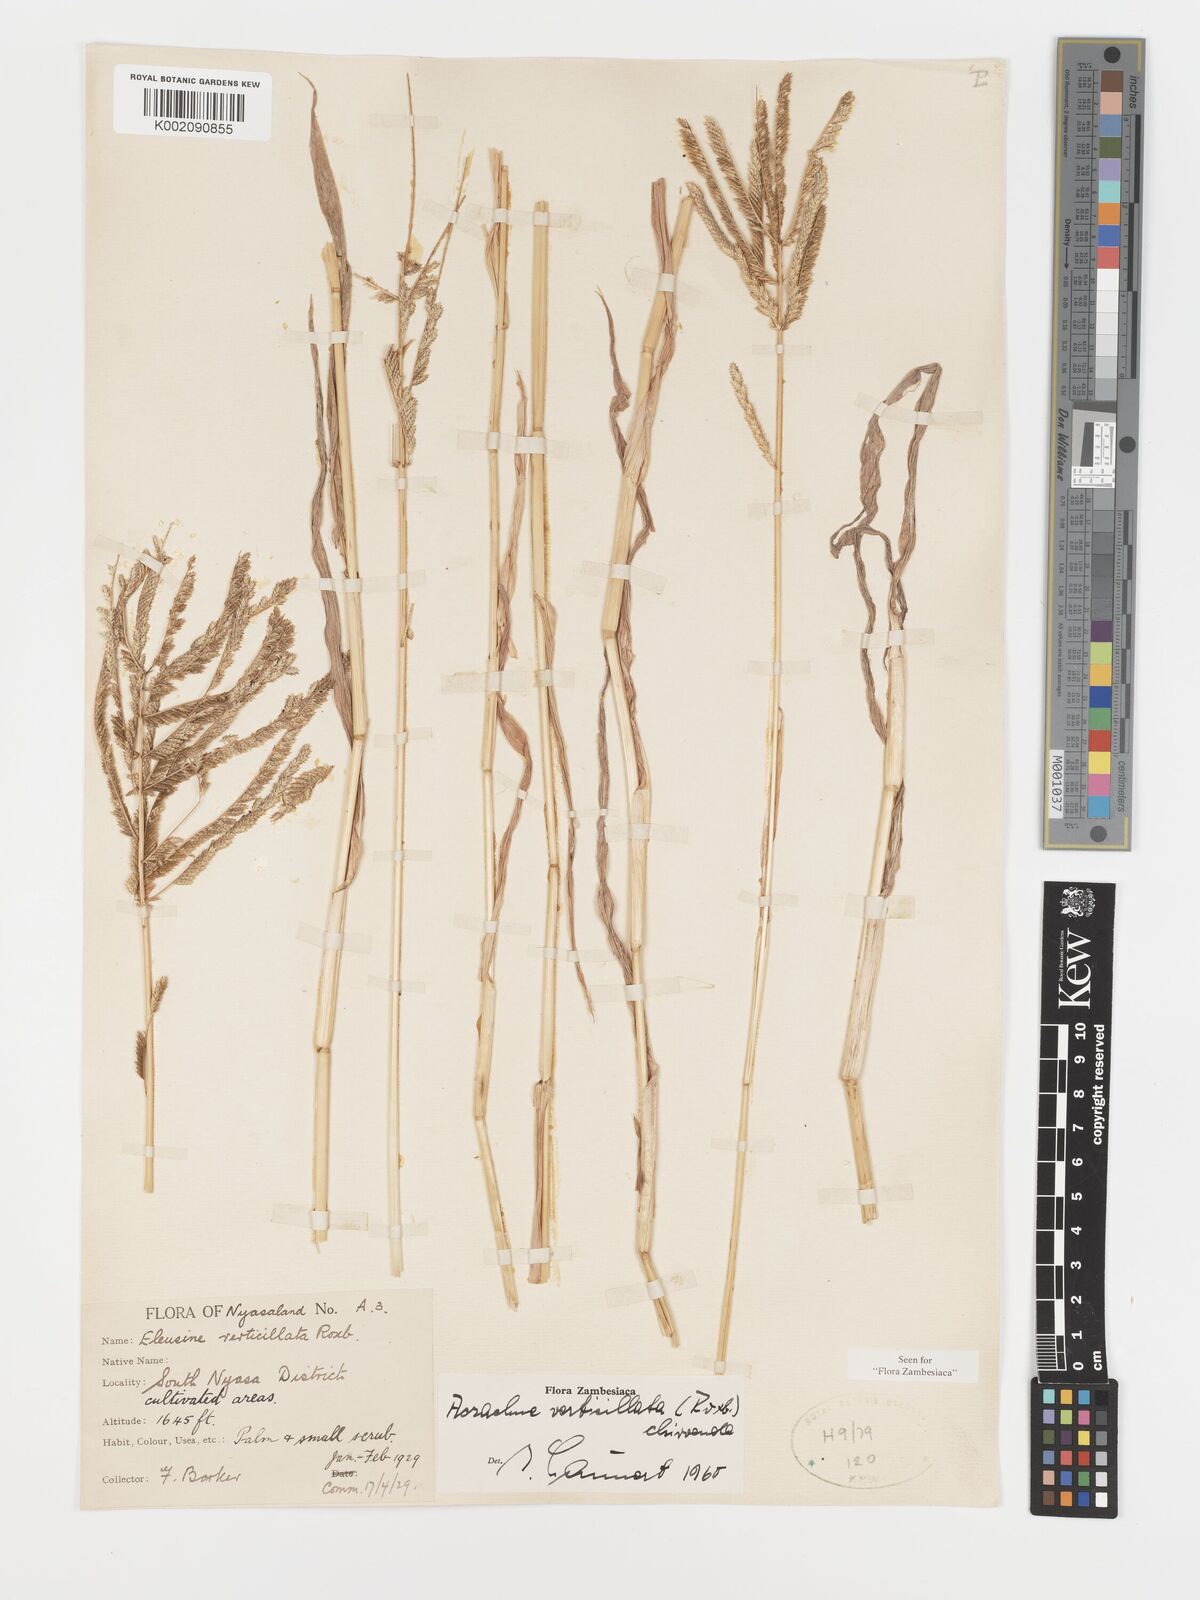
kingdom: Plantae
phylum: Tracheophyta
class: Liliopsida
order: Poales
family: Poaceae
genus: Acrachne
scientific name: Acrachne racemosa
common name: Goosegrass
